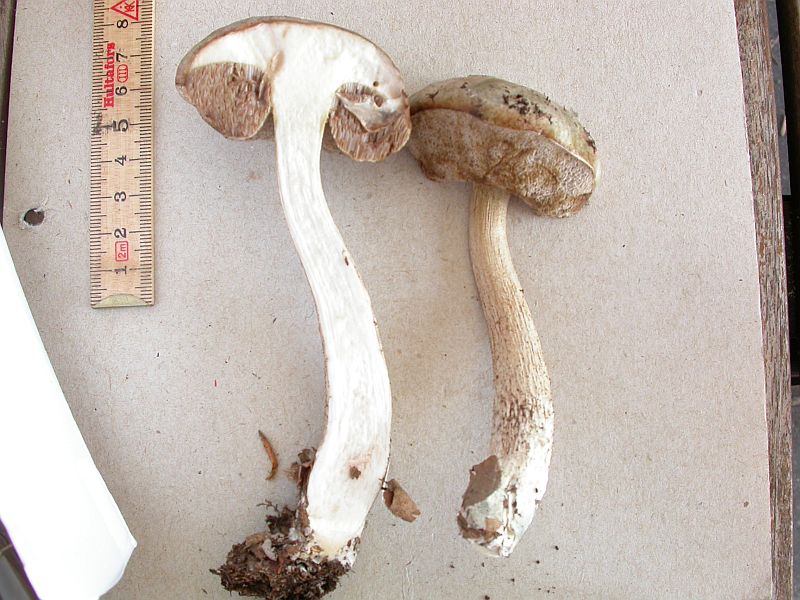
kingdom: Fungi
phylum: Basidiomycota
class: Agaricomycetes
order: Boletales
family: Boletaceae
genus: Leccinum
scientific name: Leccinum schistophilum
